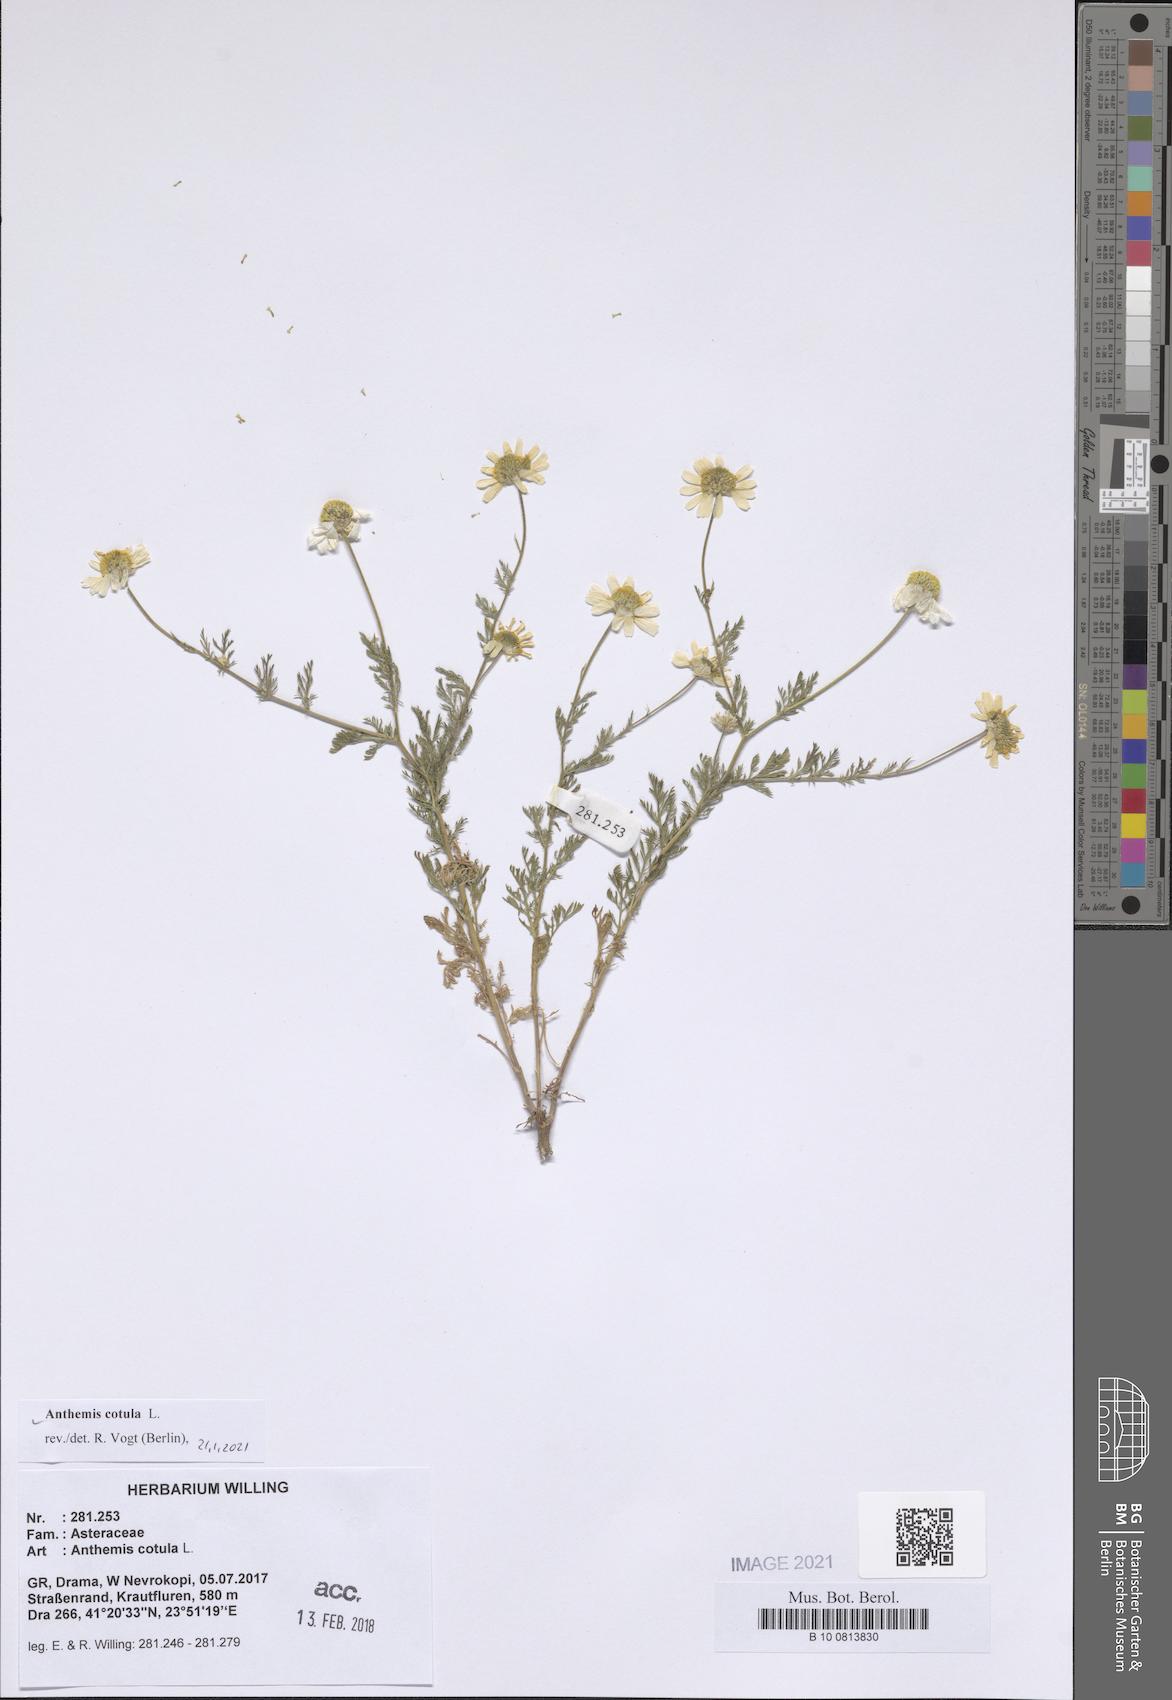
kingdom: Plantae
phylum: Tracheophyta
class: Magnoliopsida
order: Asterales
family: Asteraceae
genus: Anthemis
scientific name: Anthemis cotula
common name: Stinking chamomile
